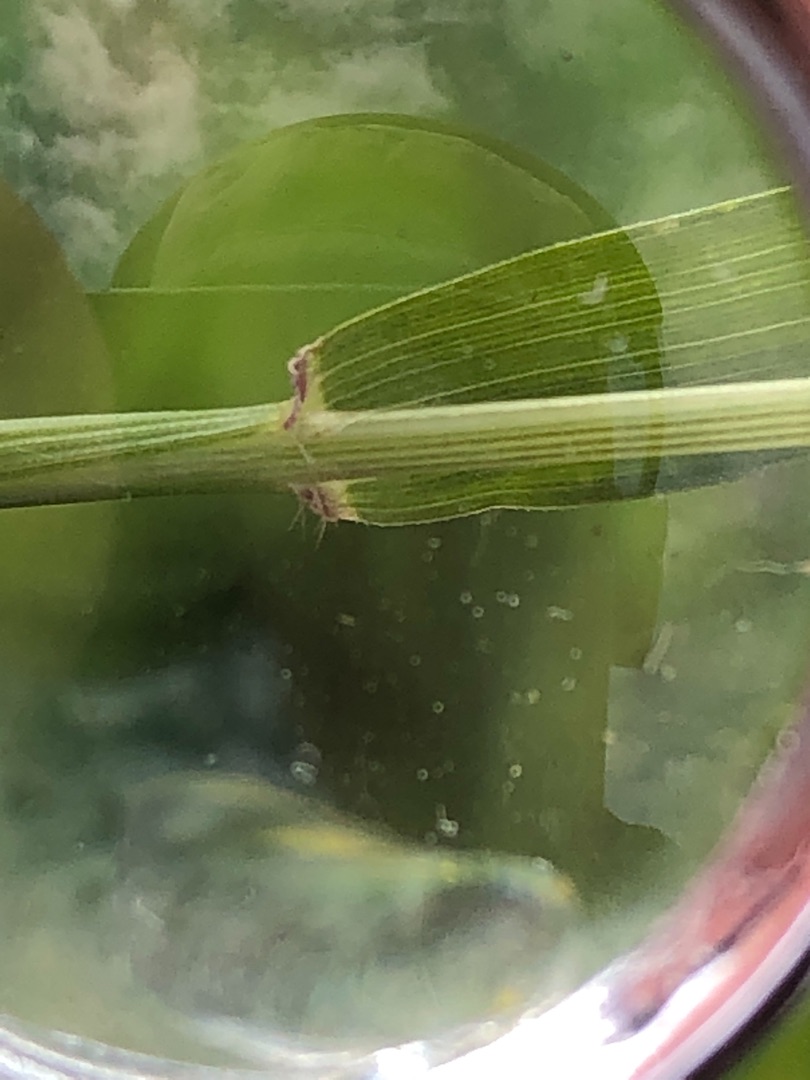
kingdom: Plantae
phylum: Tracheophyta
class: Liliopsida
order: Poales
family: Poaceae
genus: Anthoxanthum
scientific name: Anthoxanthum odoratum
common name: Vellugtende gulaks
